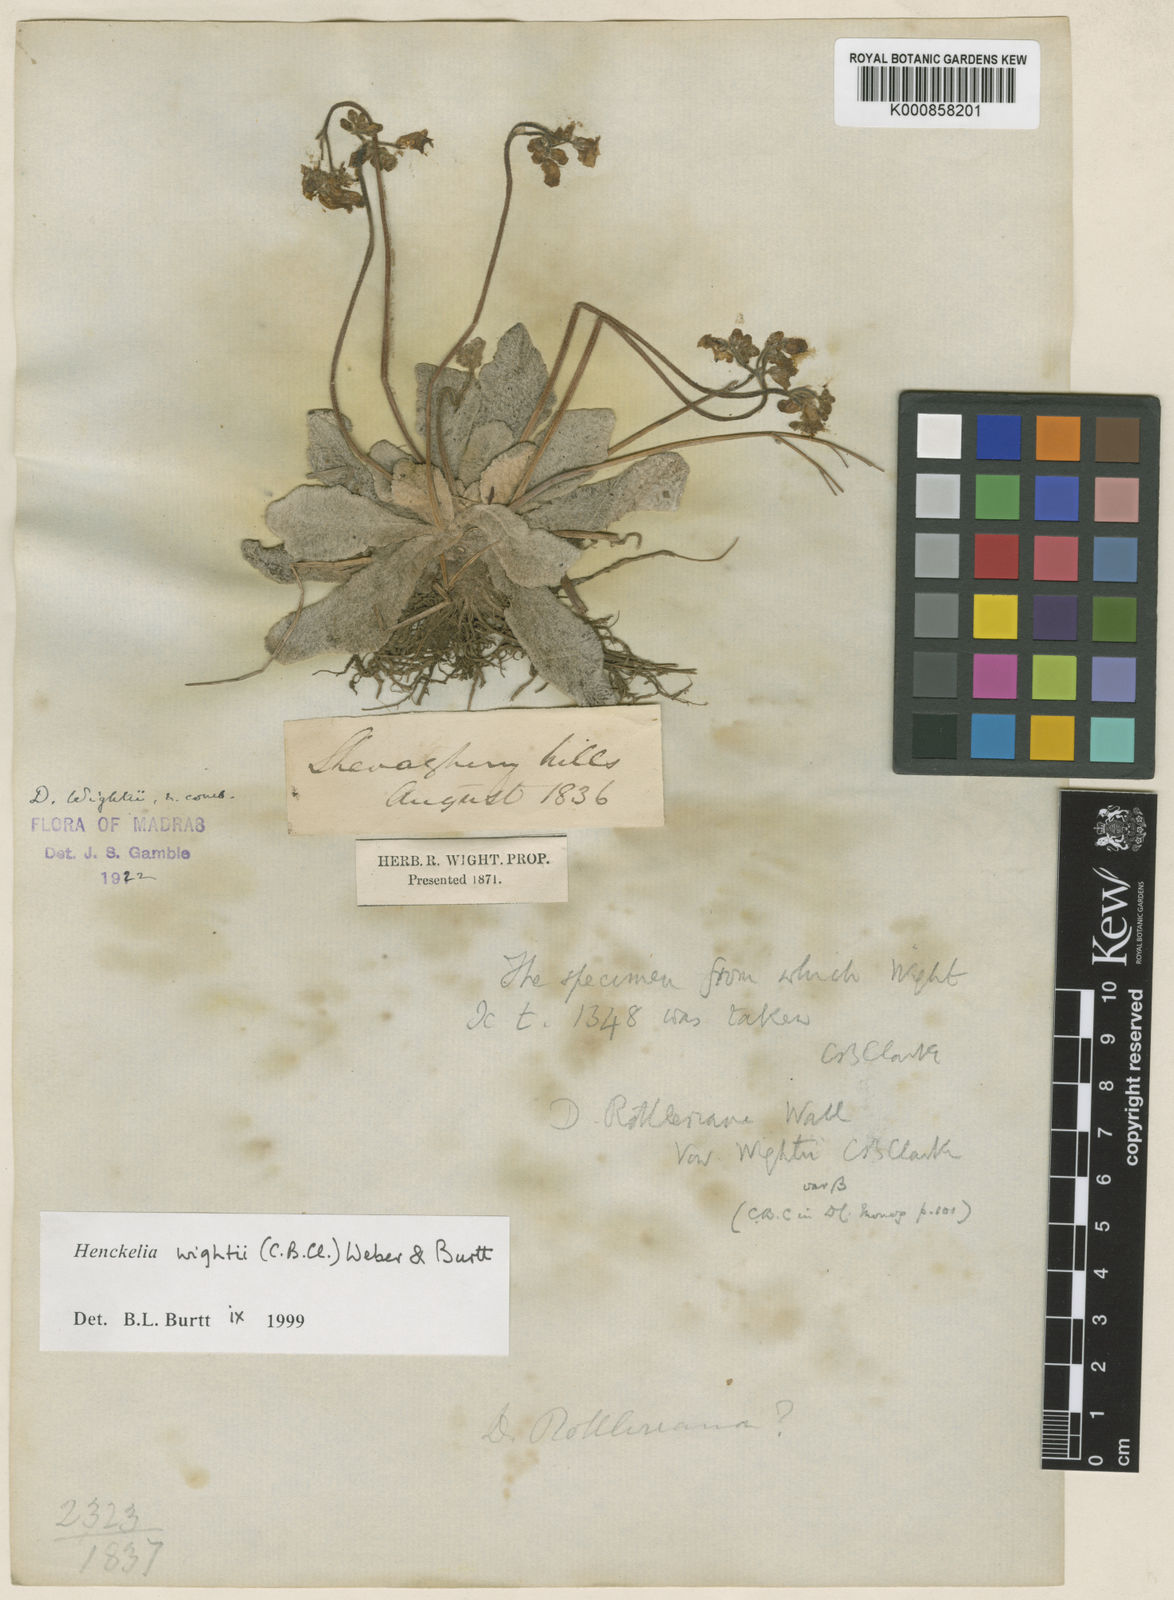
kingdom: Plantae
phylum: Tracheophyta
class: Magnoliopsida
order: Lamiales
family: Gesneriaceae
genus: Henckelia
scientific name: Henckelia wightii
